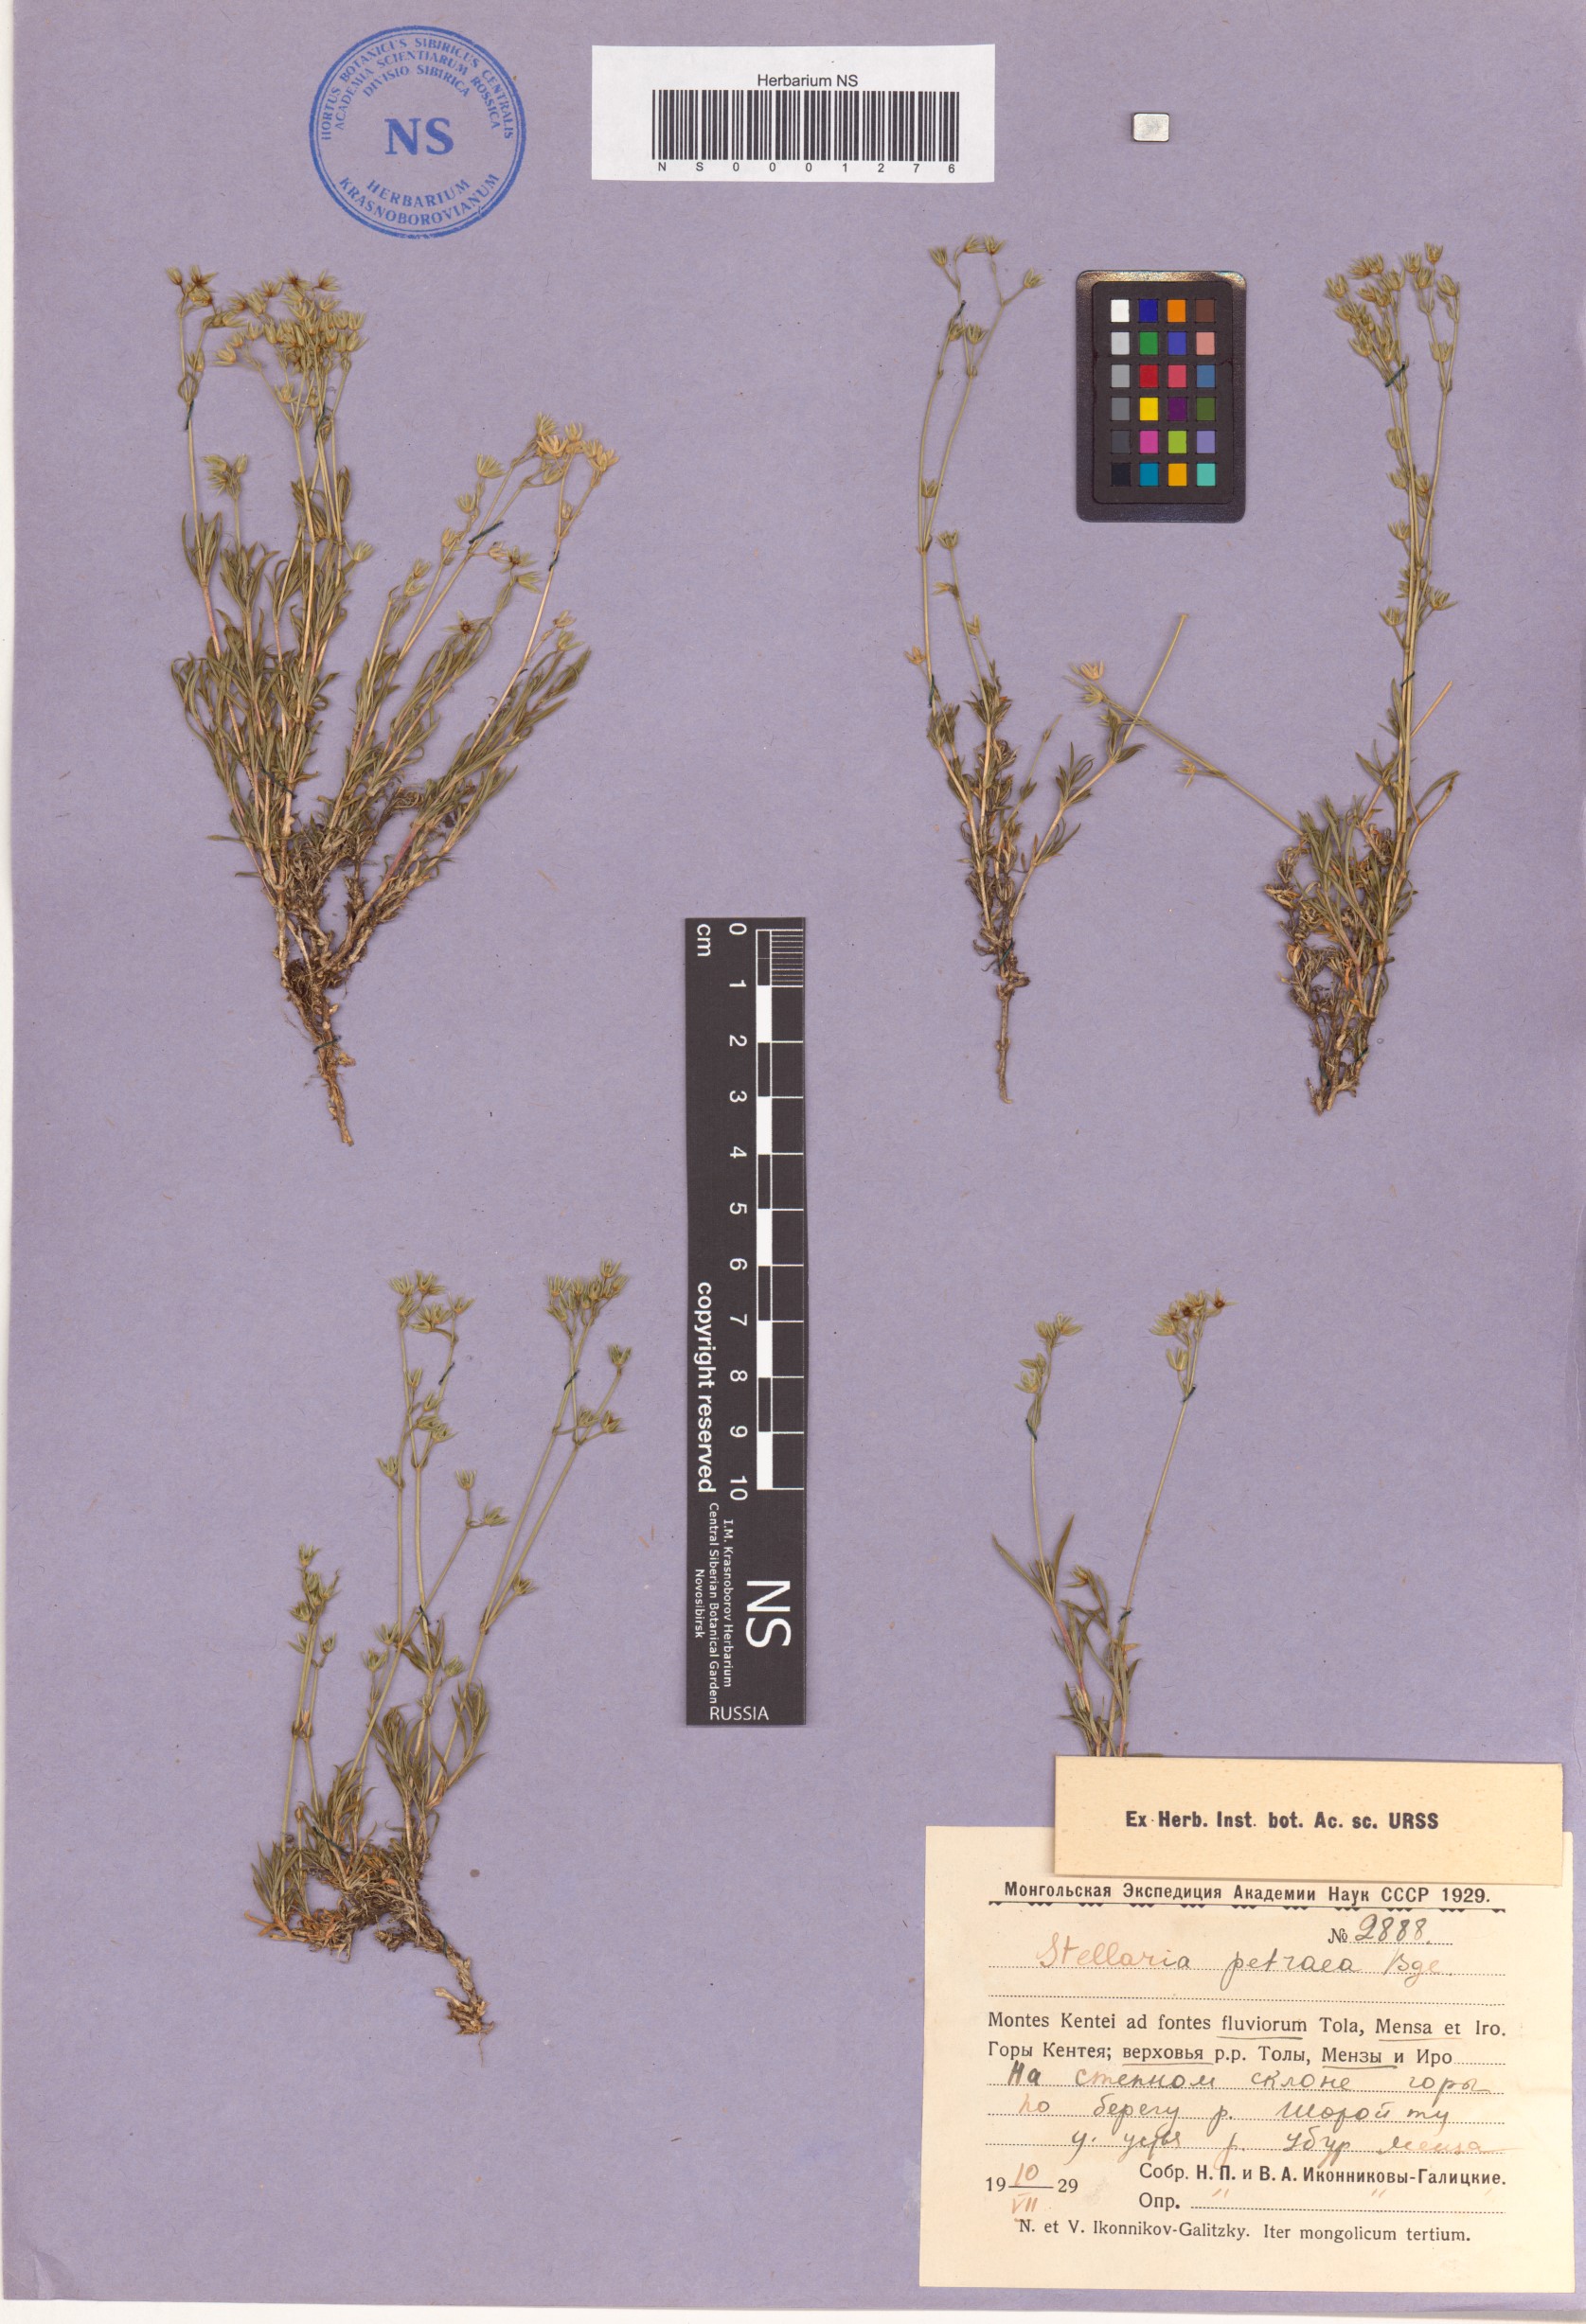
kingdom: Plantae
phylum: Tracheophyta
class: Magnoliopsida
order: Caryophyllales
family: Caryophyllaceae
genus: Adenonema
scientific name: Adenonema petraeum
